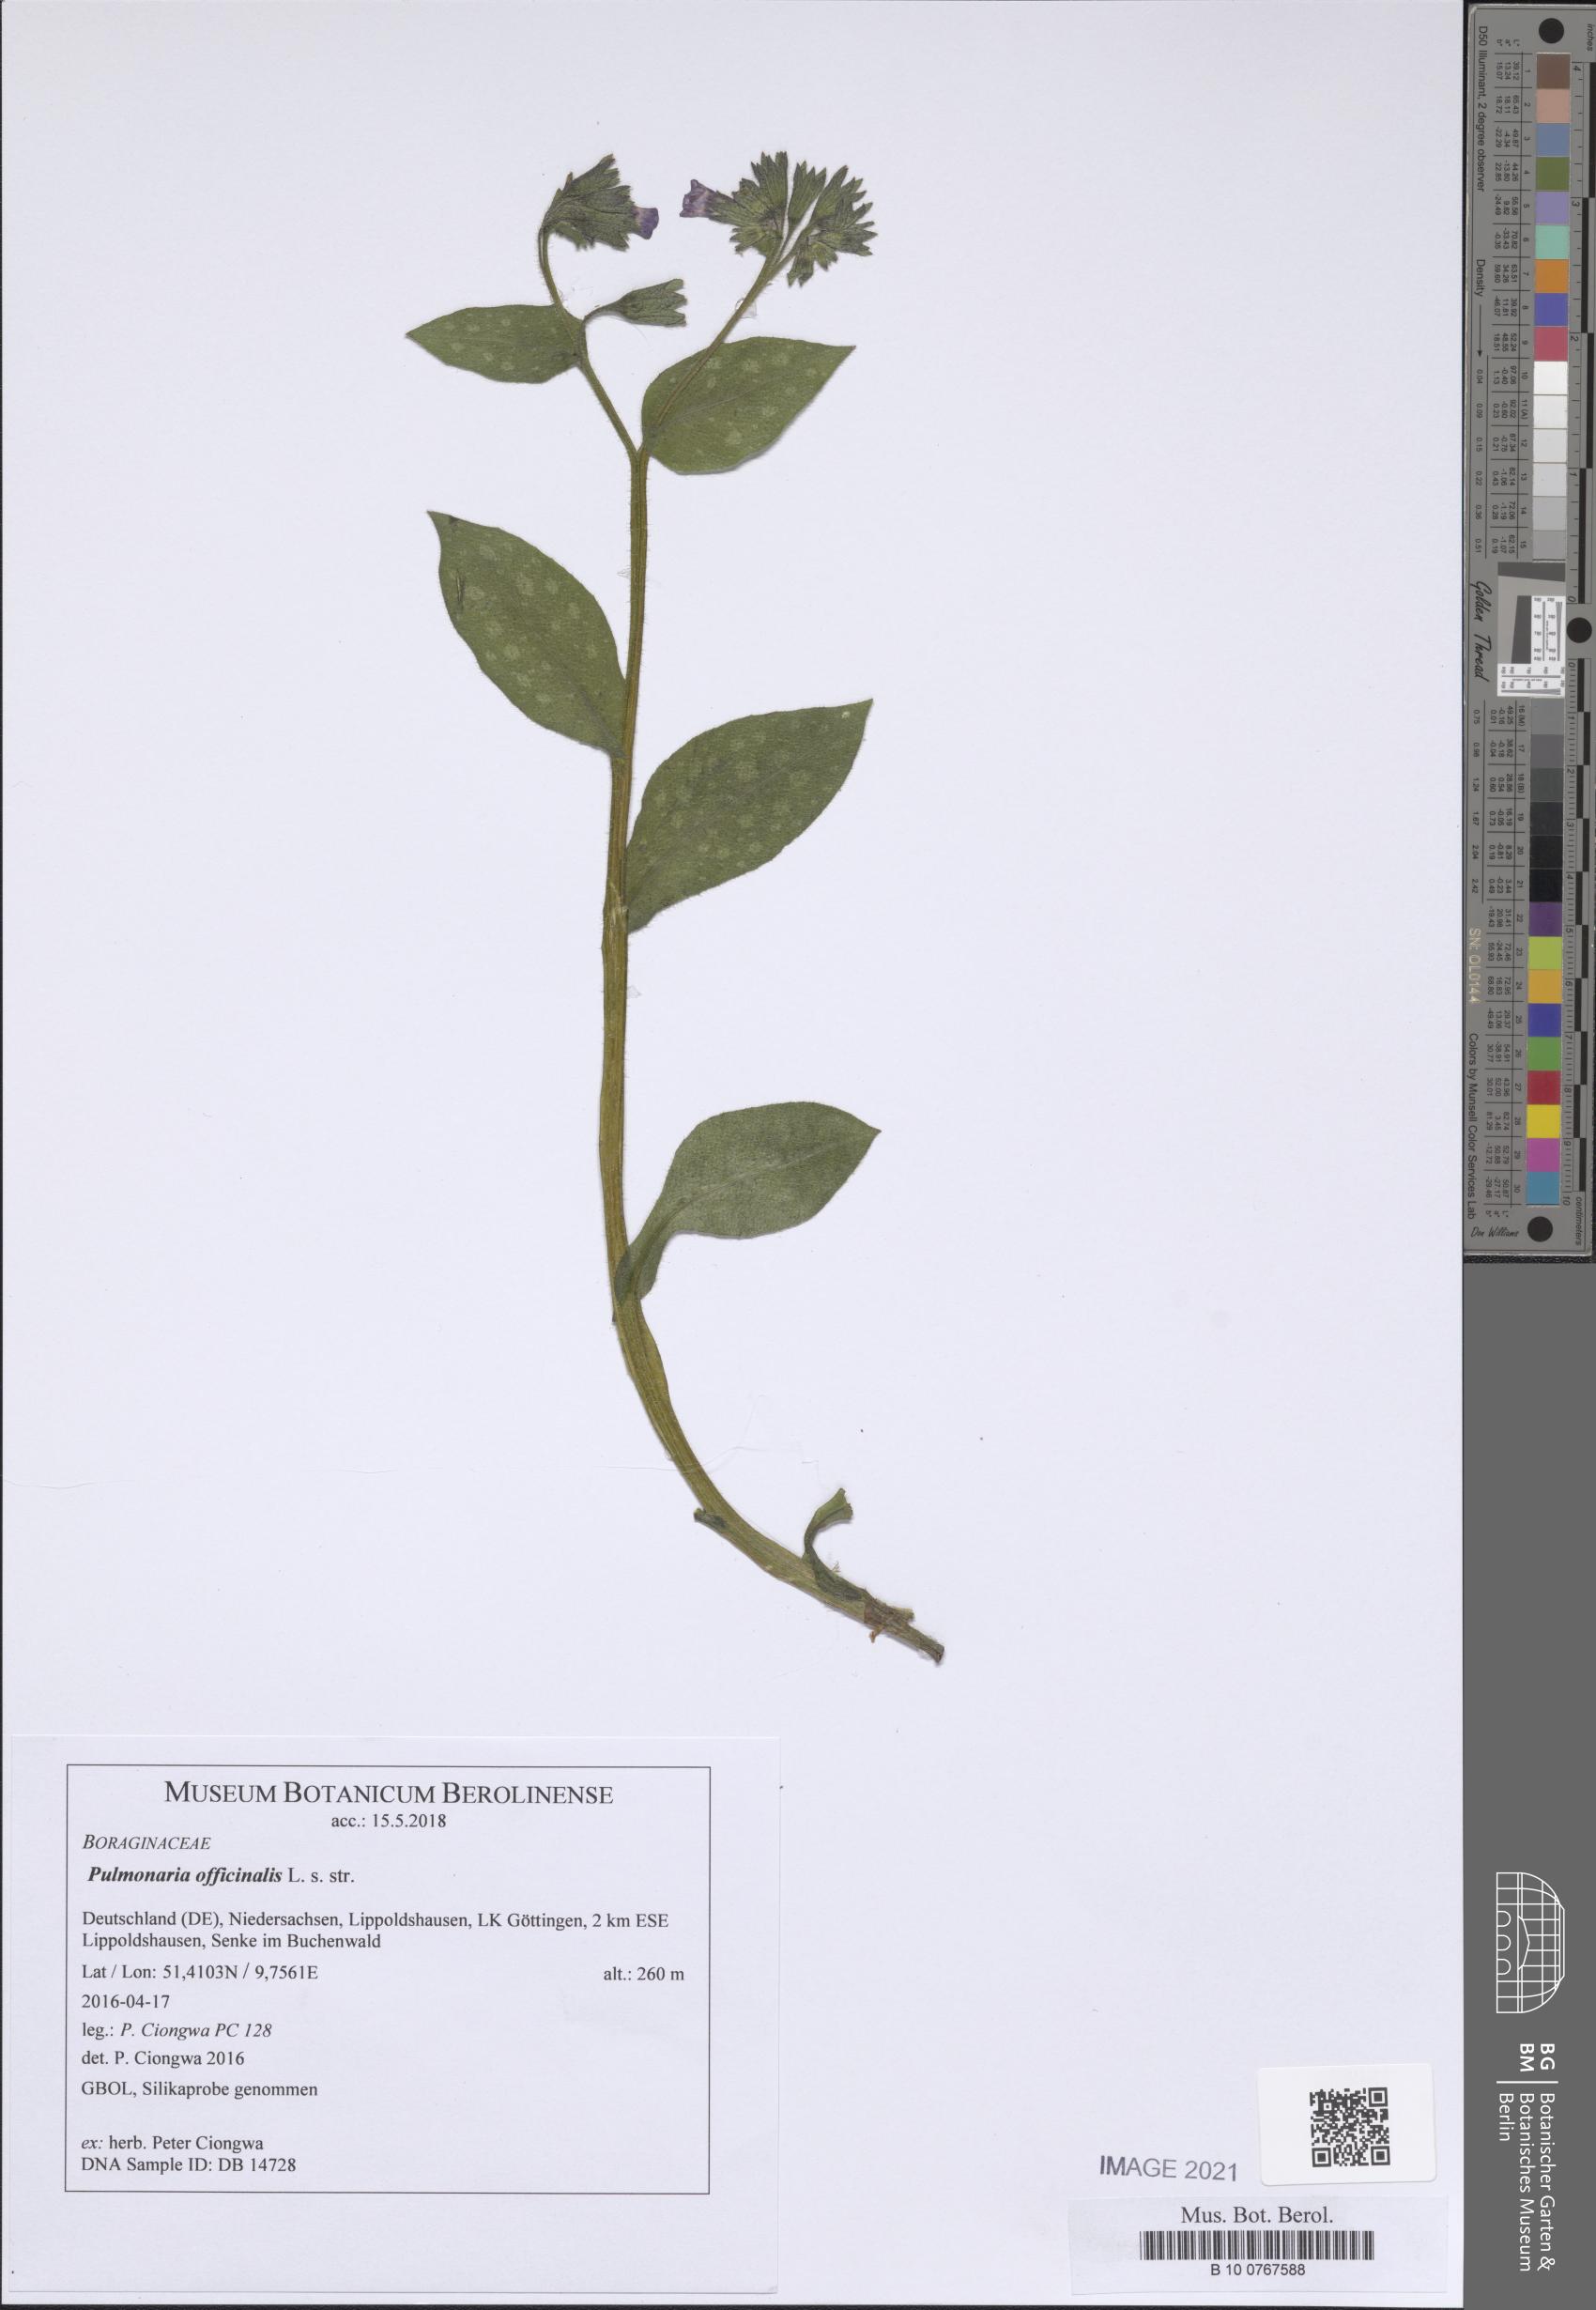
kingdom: Plantae
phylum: Tracheophyta
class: Magnoliopsida
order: Boraginales
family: Boraginaceae
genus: Pulmonaria
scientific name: Pulmonaria officinalis
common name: Lungwort
